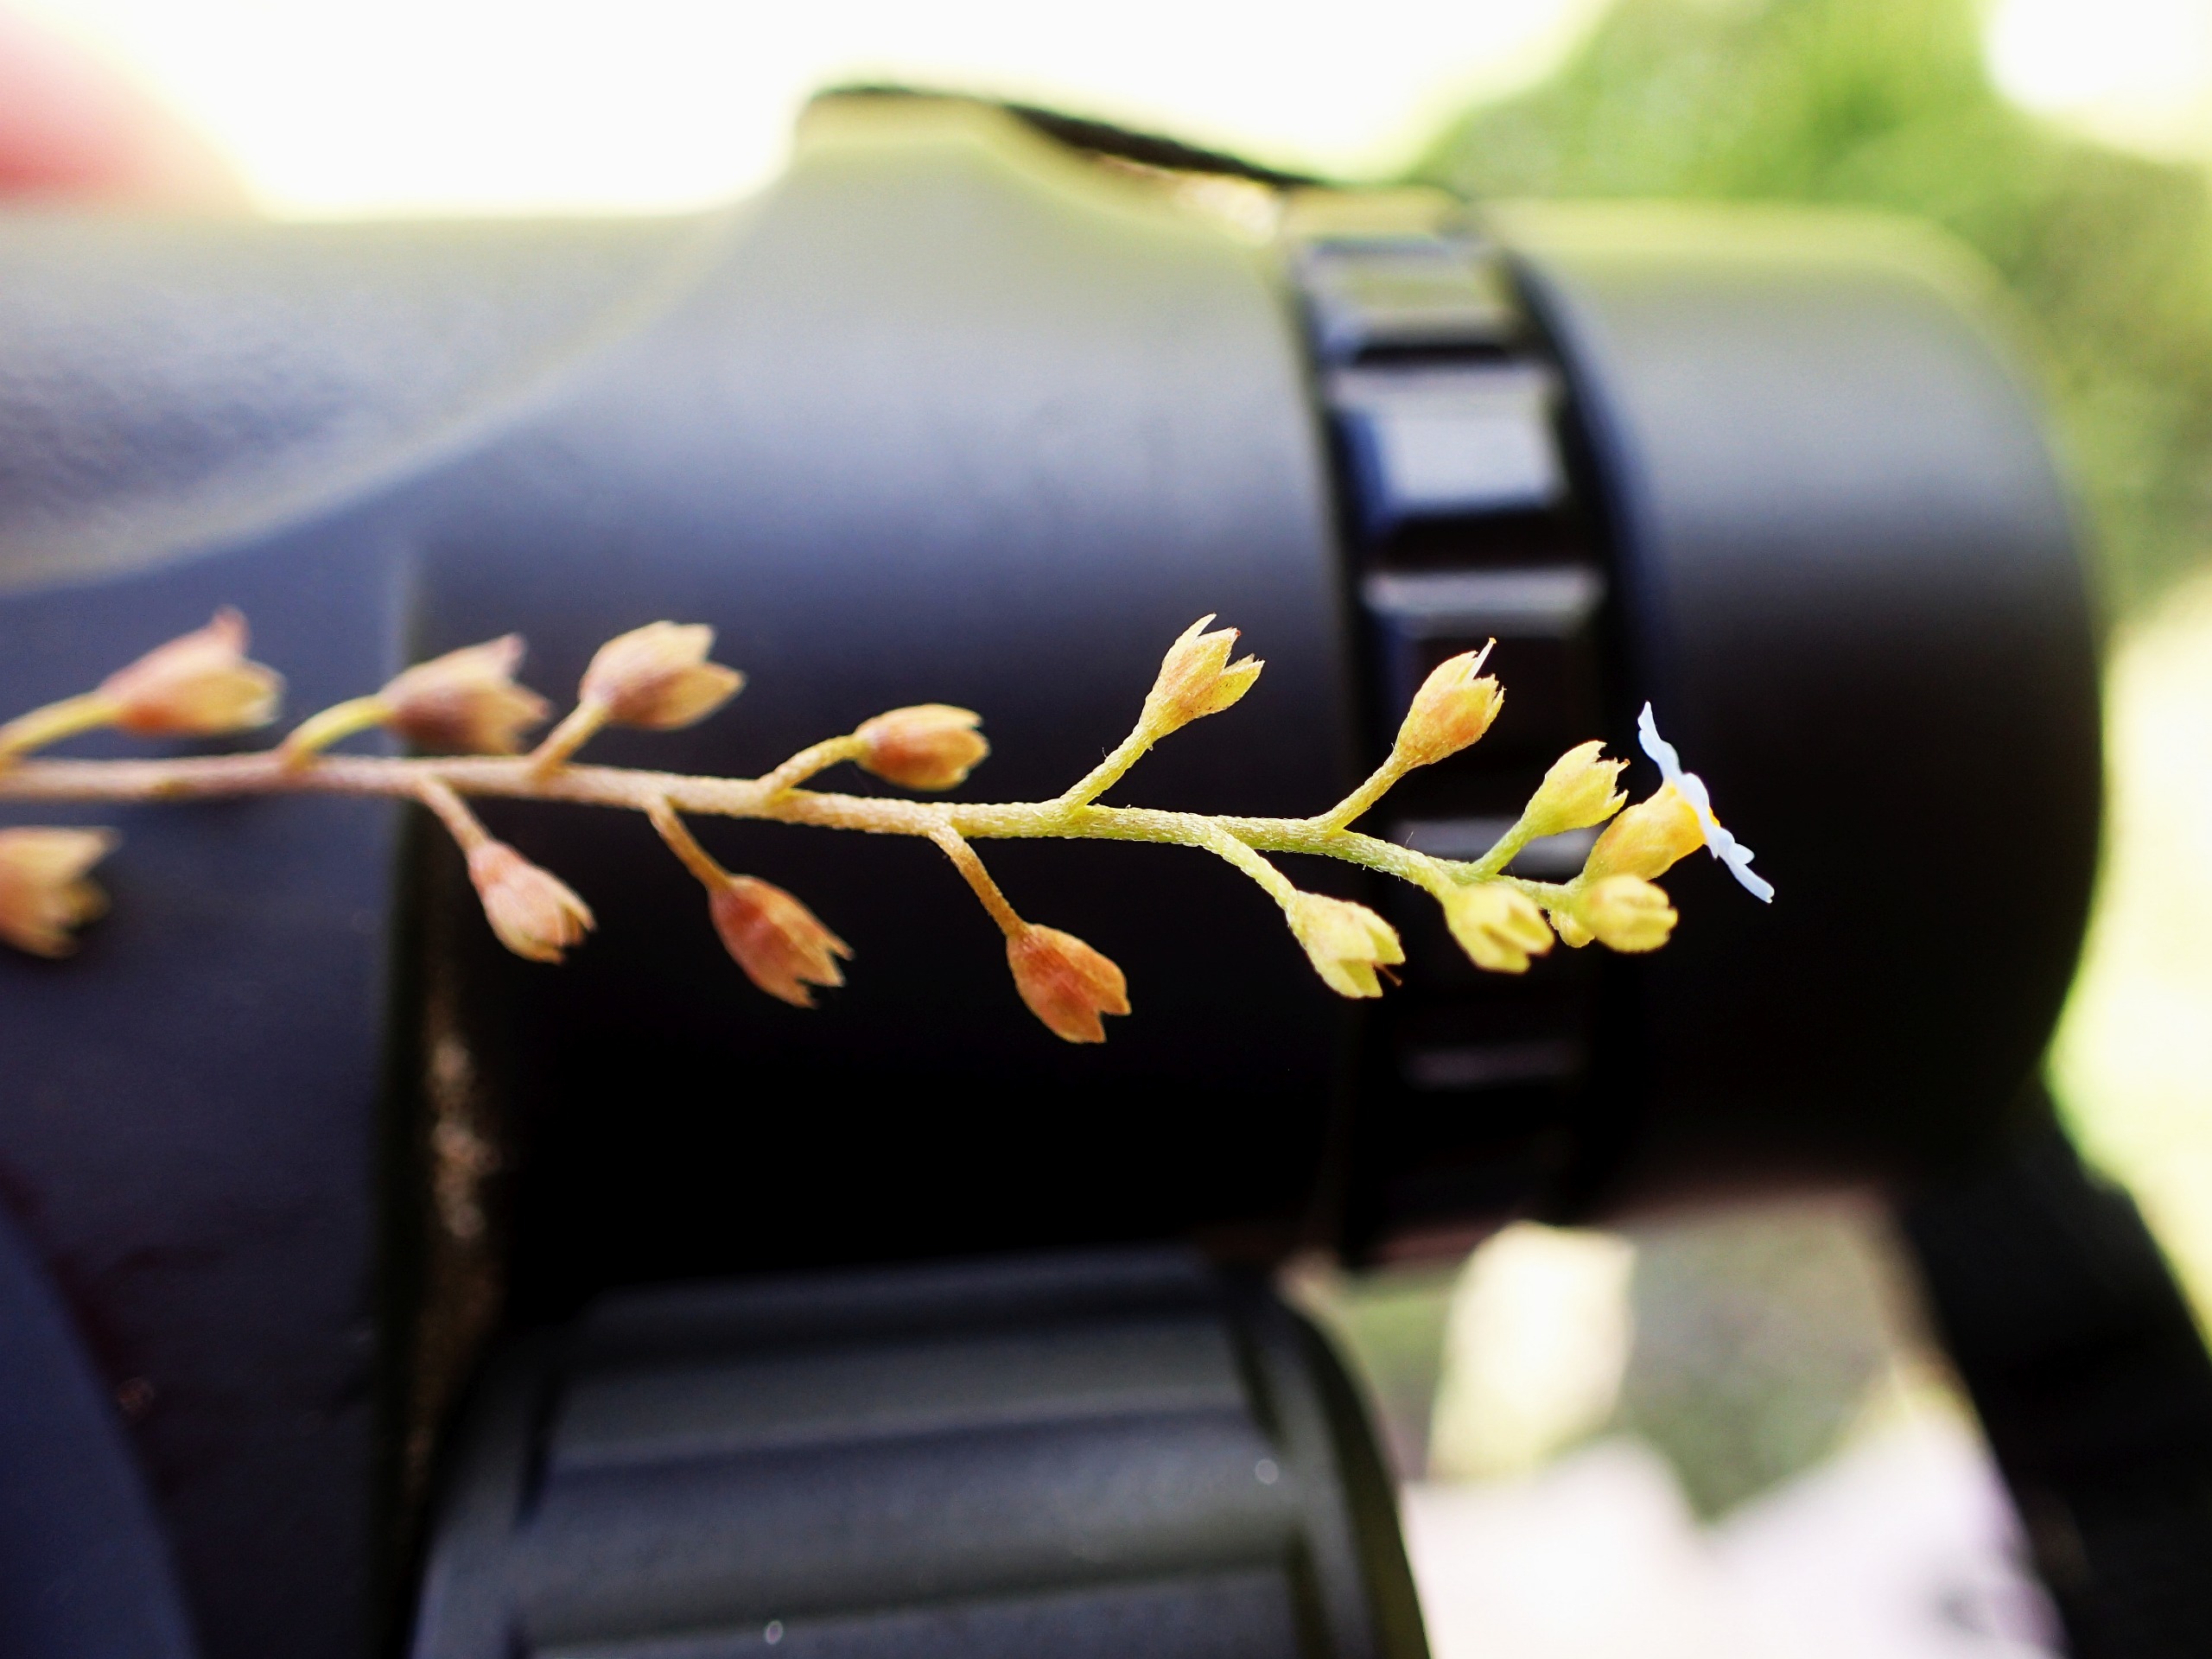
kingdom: Plantae
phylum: Tracheophyta
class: Magnoliopsida
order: Boraginales
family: Boraginaceae
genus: Myosotis
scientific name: Myosotis scorpioides
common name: Eng-forglemmigej
